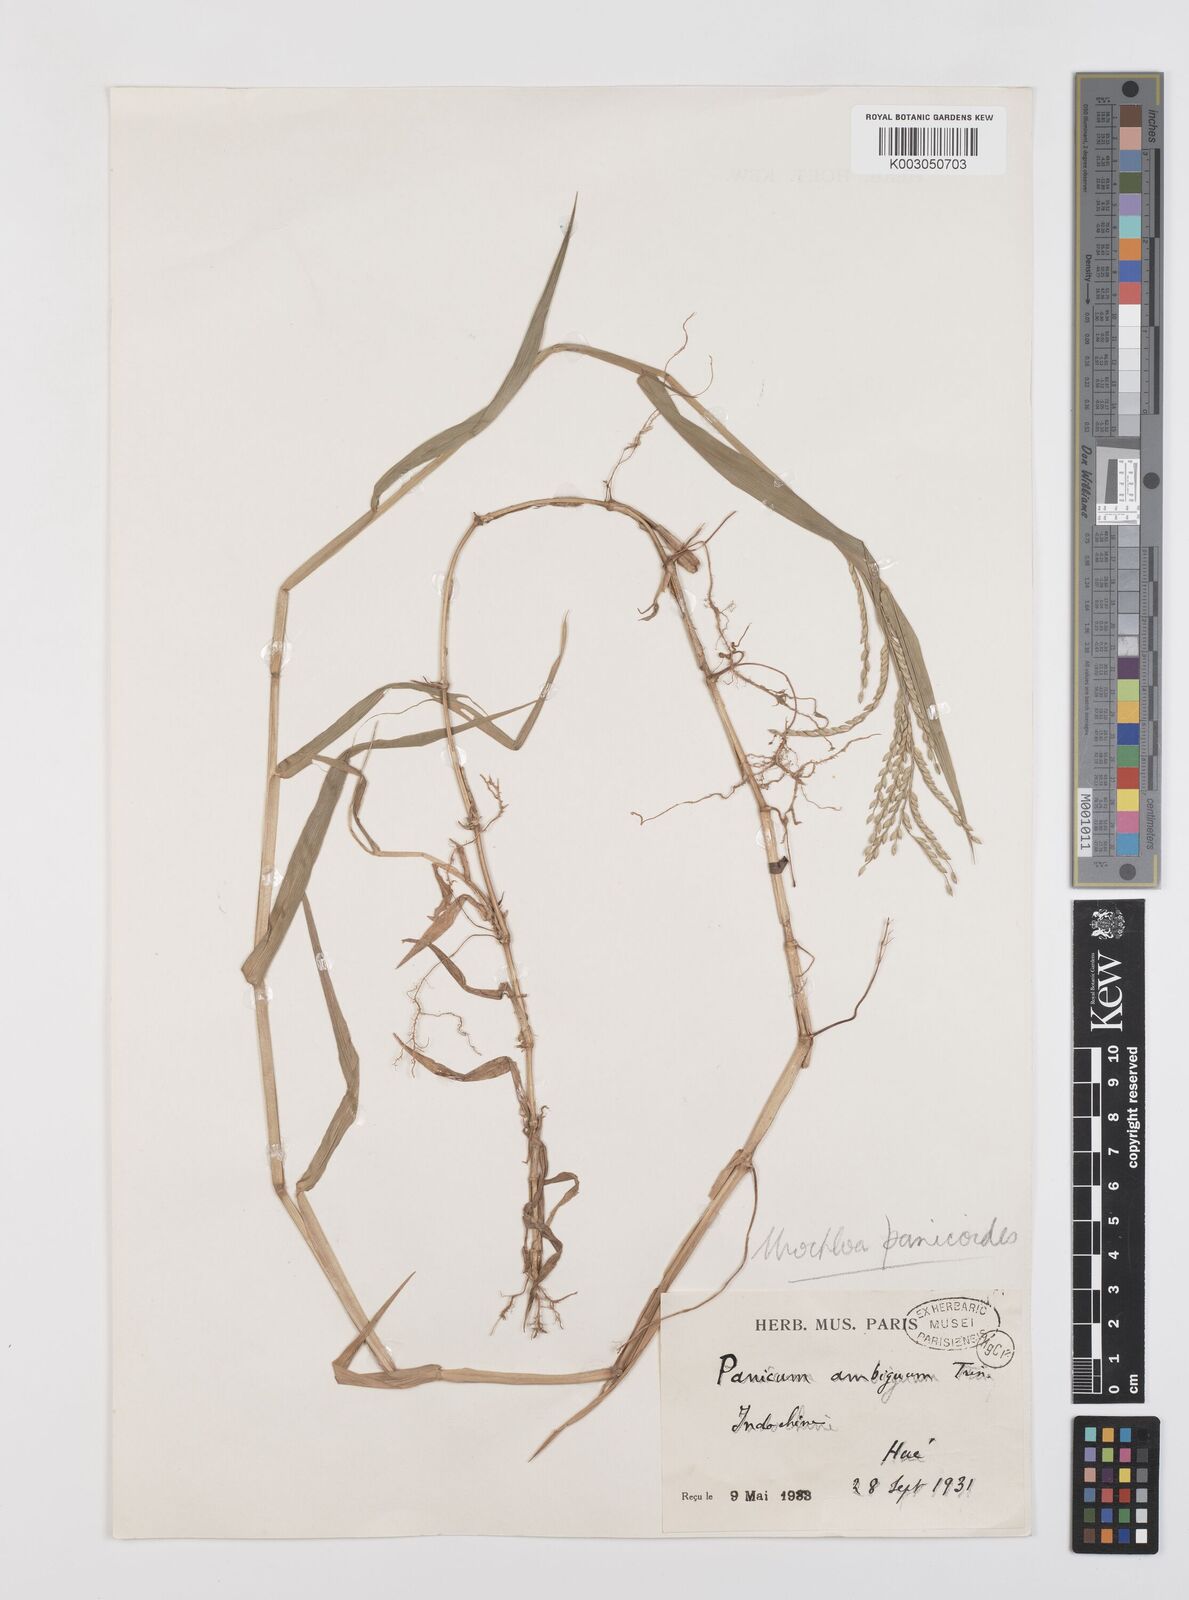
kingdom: Plantae
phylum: Tracheophyta
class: Liliopsida
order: Poales
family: Poaceae
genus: Urochloa
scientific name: Urochloa subquadripara
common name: Armgrass millet
